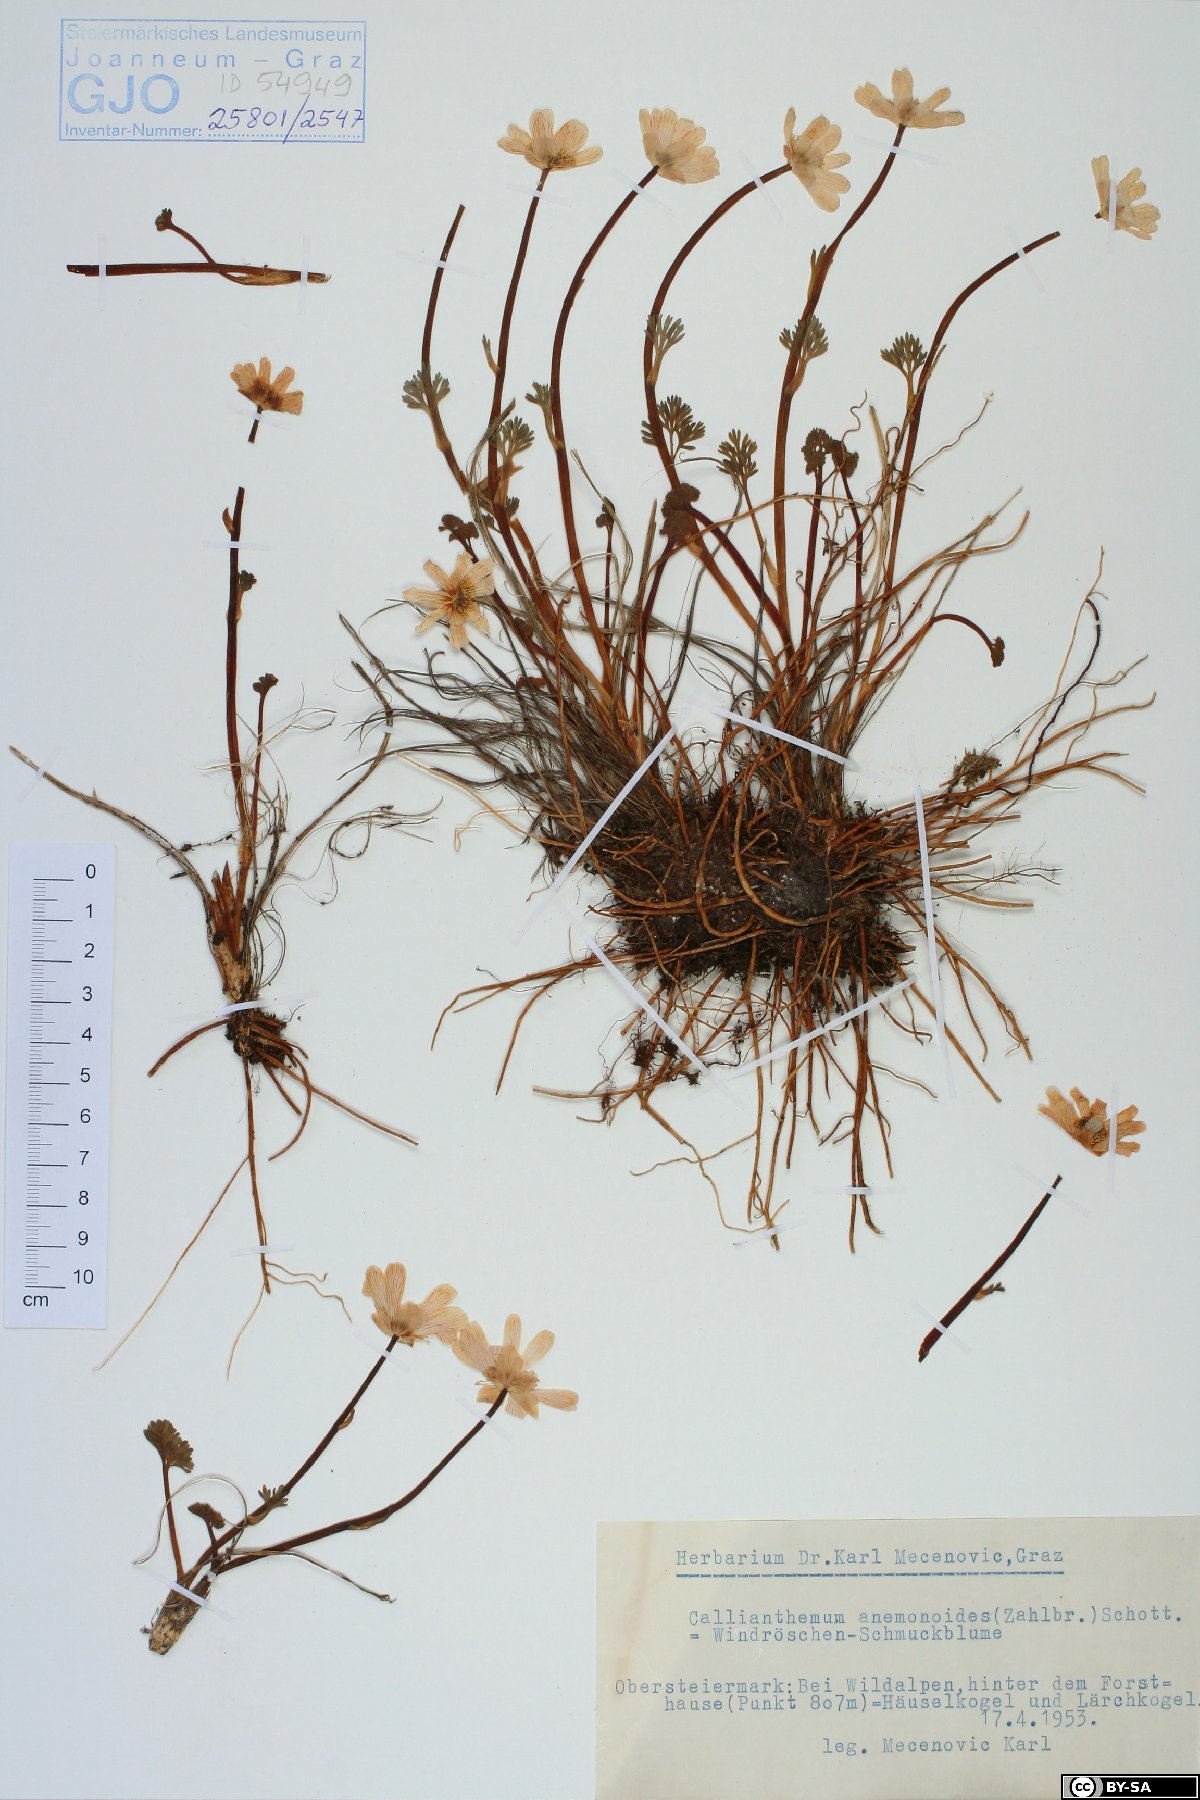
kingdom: Plantae
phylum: Tracheophyta
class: Magnoliopsida
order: Ranunculales
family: Ranunculaceae
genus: Callianthemum
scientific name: Callianthemum anemonoides
